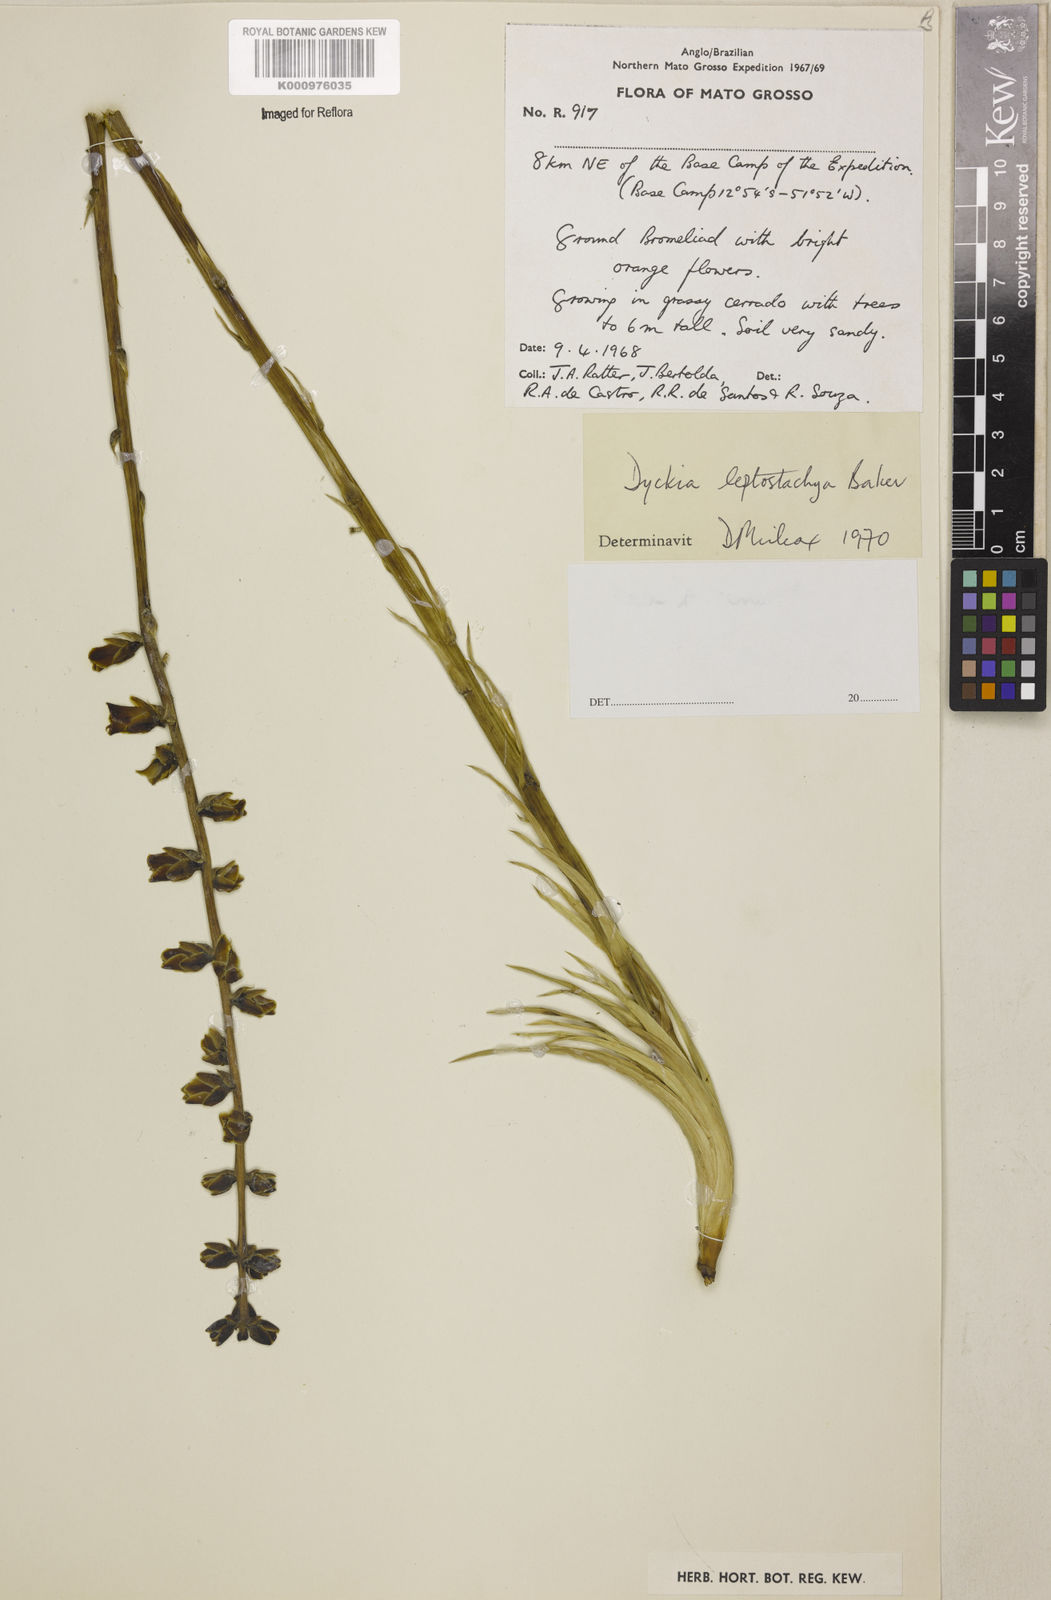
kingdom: Plantae
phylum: Tracheophyta
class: Liliopsida
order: Poales
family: Bromeliaceae
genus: Dyckia
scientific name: Dyckia leptostachya
